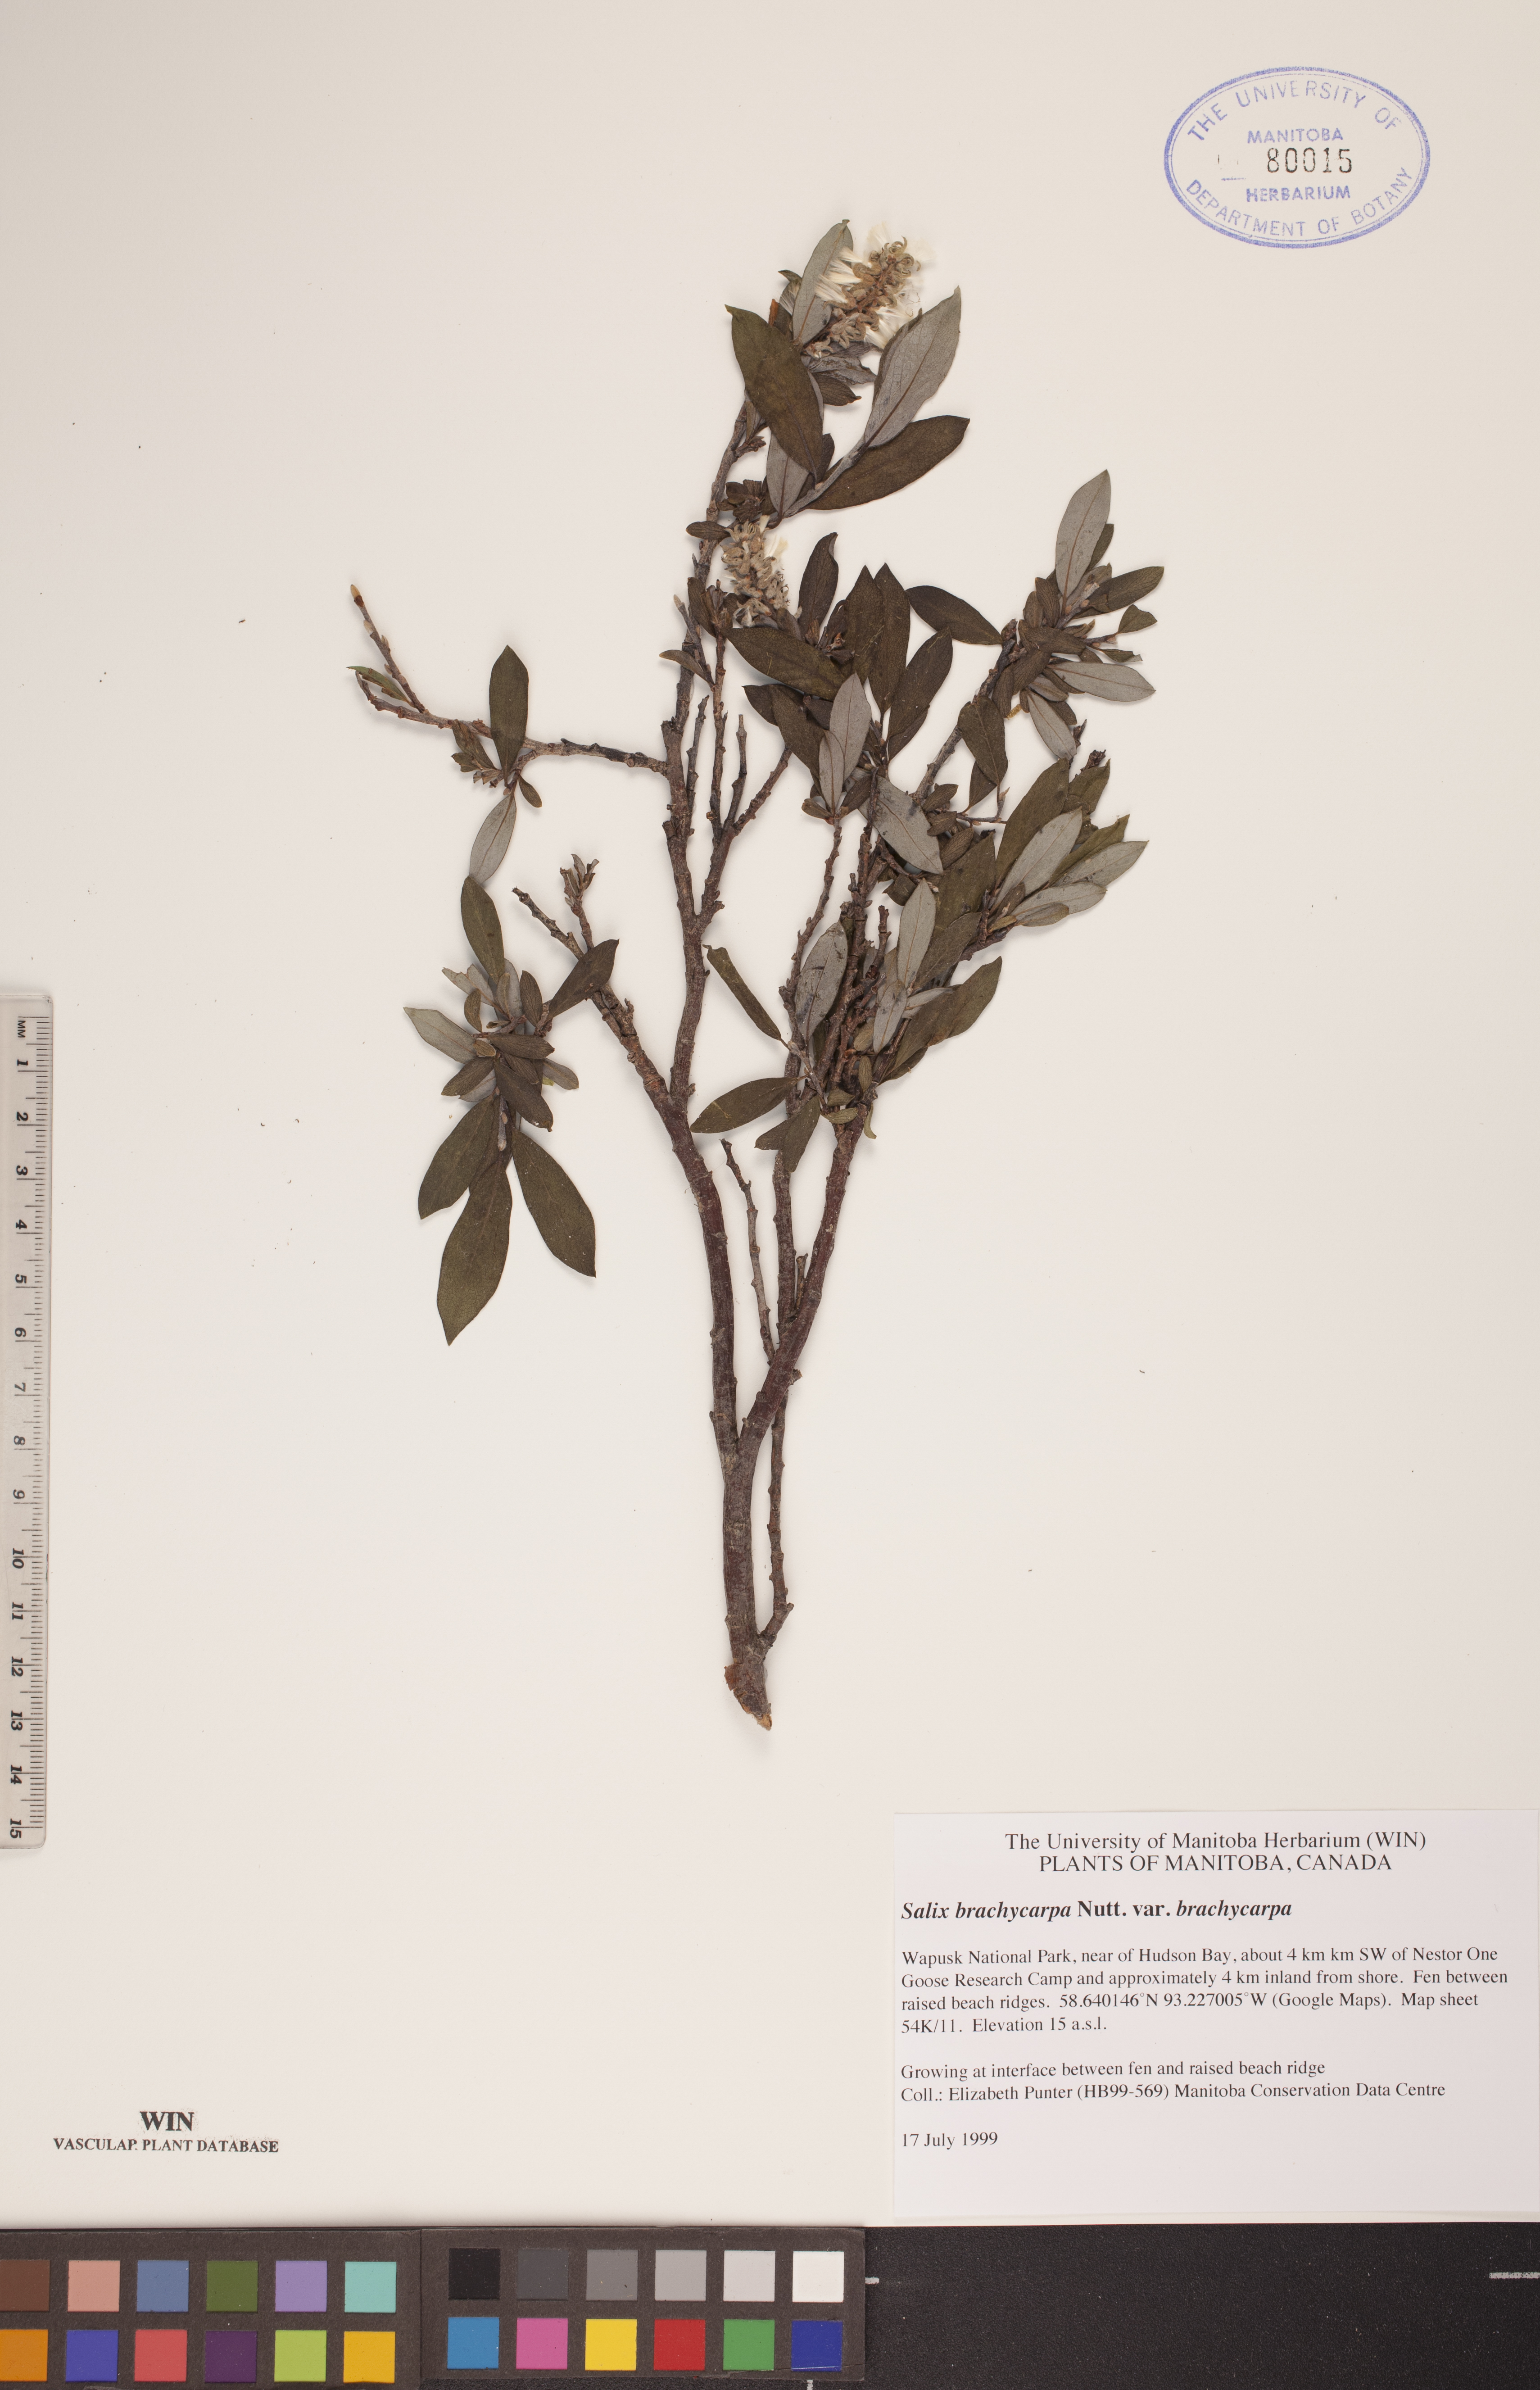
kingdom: Plantae
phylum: Tracheophyta
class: Magnoliopsida
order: Malpighiales
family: Salicaceae
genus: Salix
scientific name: Salix brachycarpa
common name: Barren-ground willow
